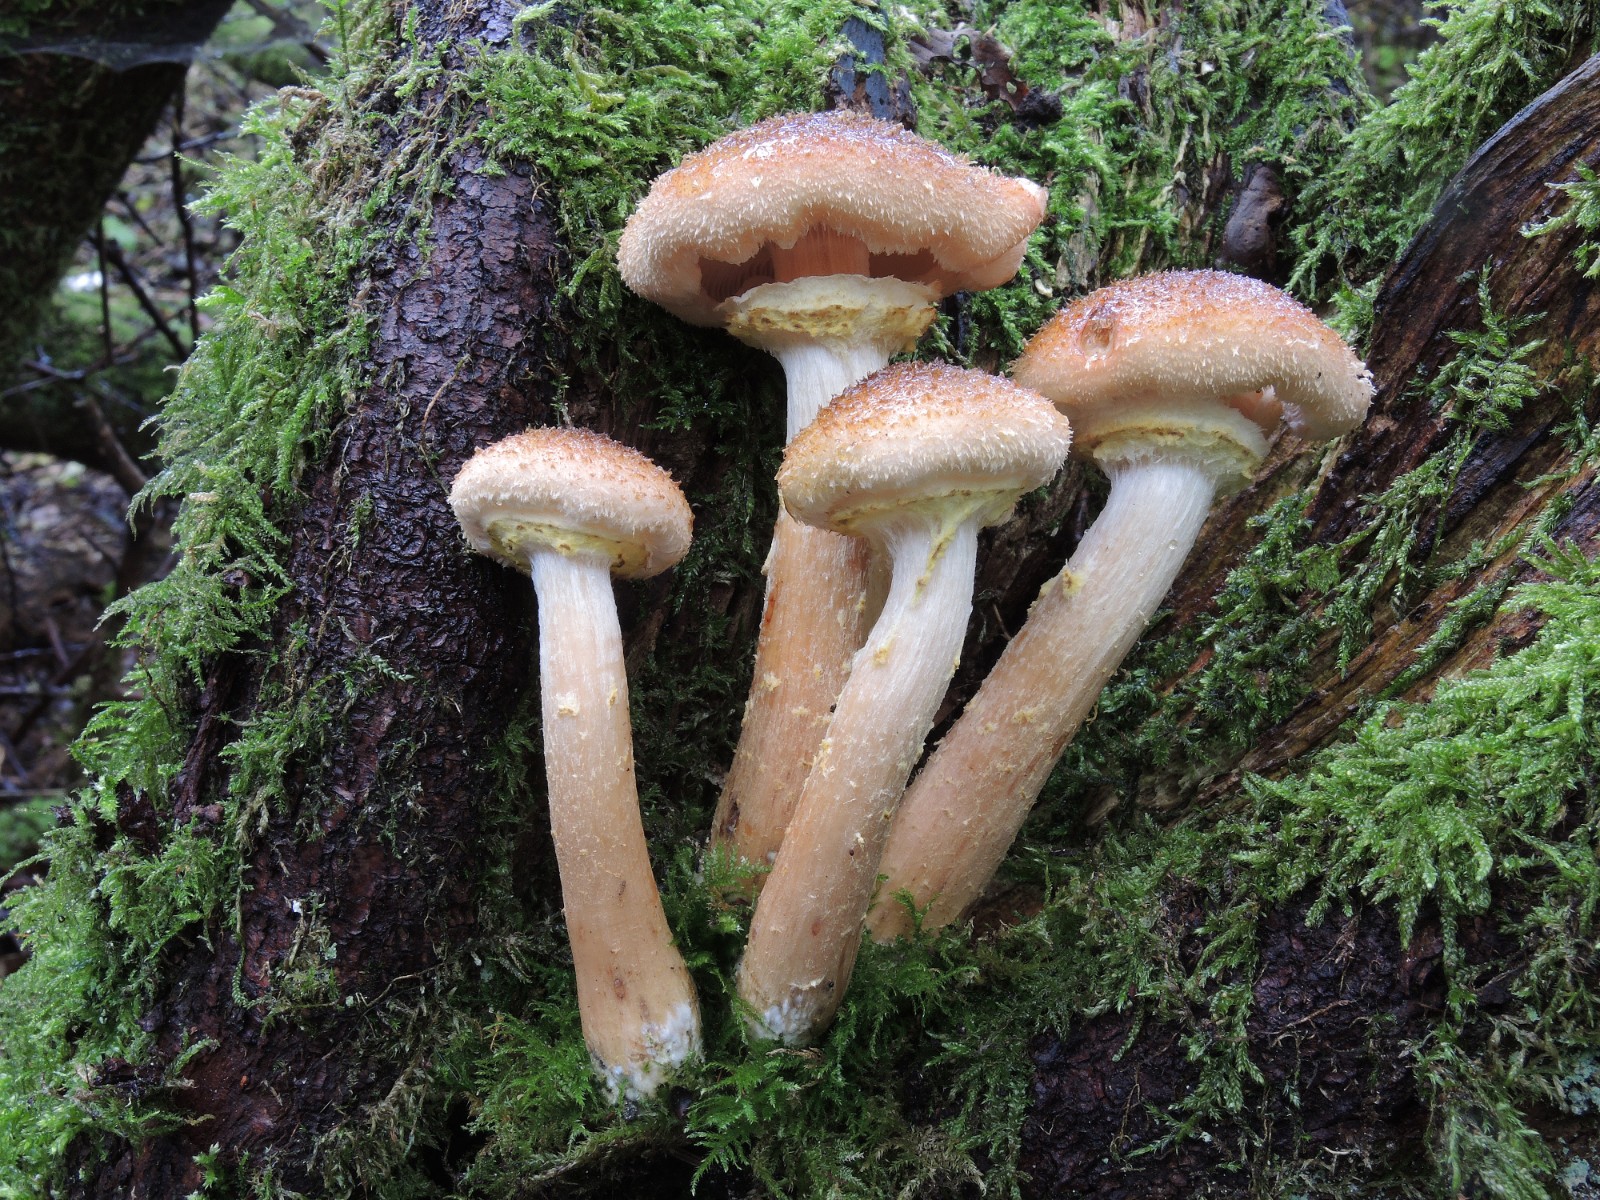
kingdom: Fungi
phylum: Basidiomycota
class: Agaricomycetes
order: Agaricales
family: Physalacriaceae
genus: Armillaria
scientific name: Armillaria lutea
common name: køllestokket honningsvamp
